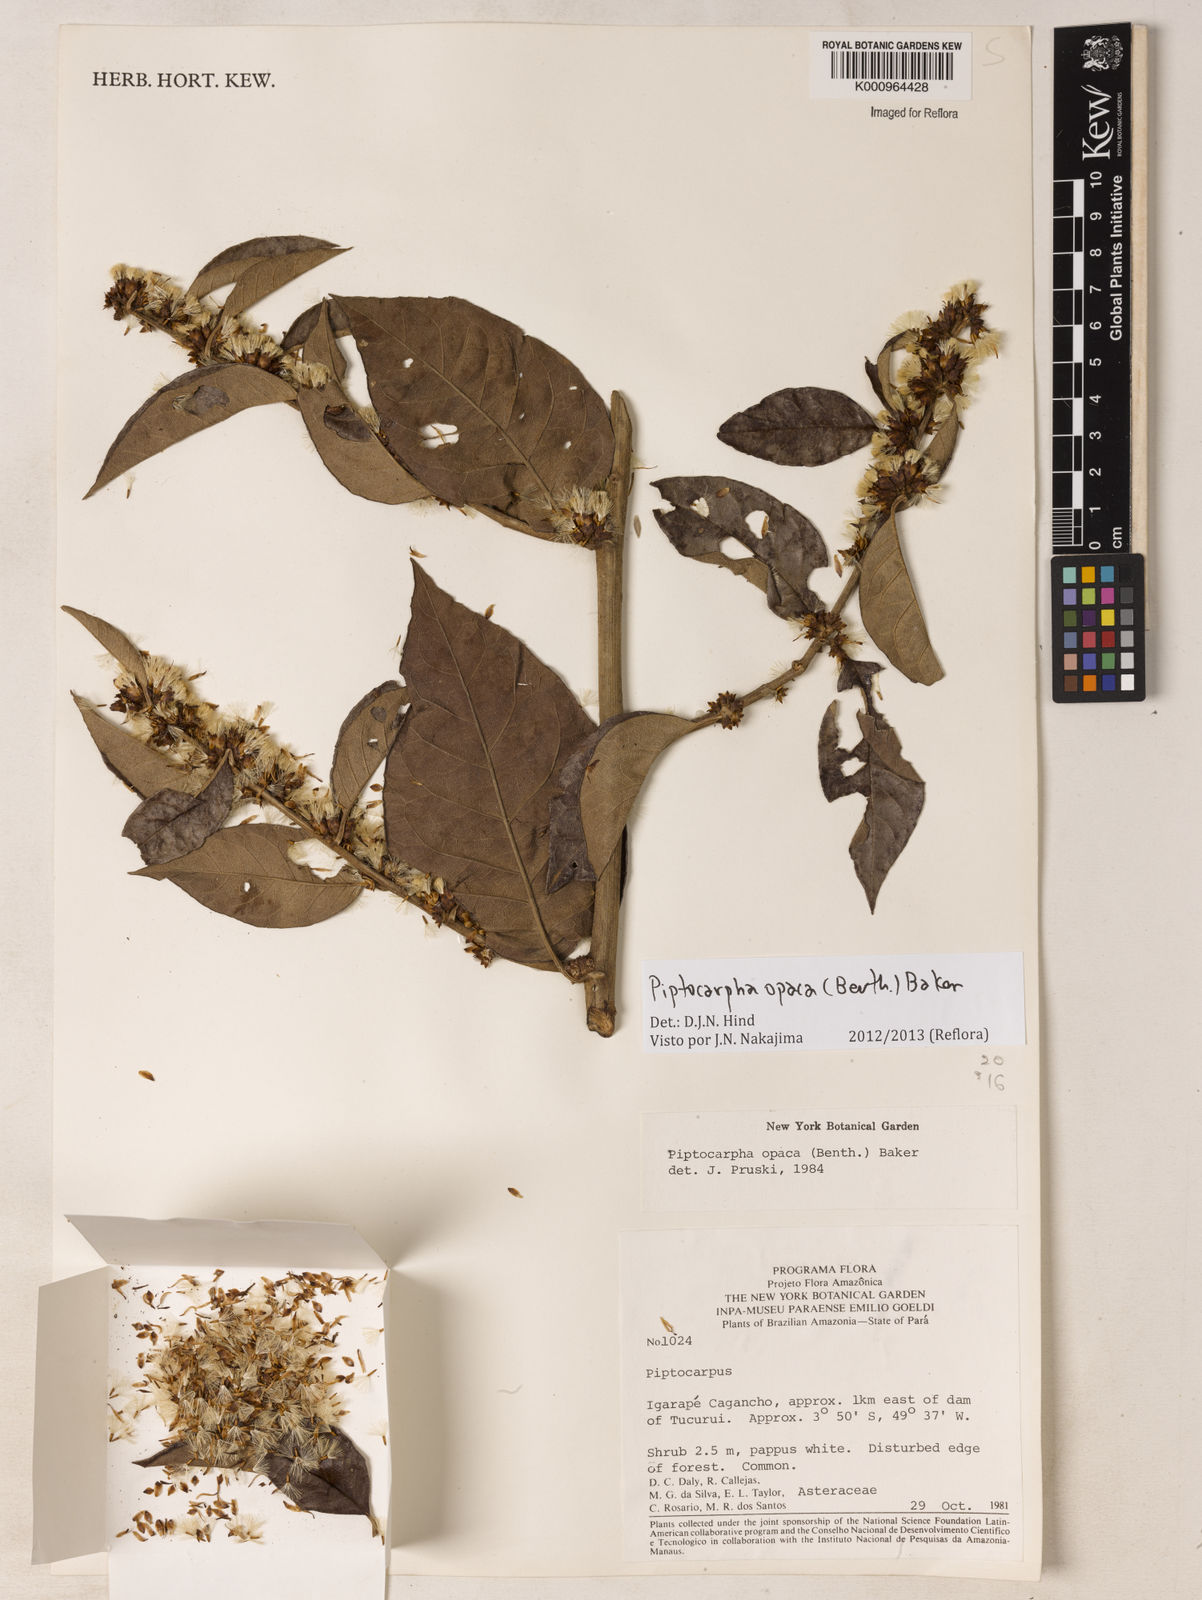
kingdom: Plantae
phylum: Tracheophyta
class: Magnoliopsida
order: Asterales
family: Asteraceae
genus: Piptocarpha
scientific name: Piptocarpha opaca
